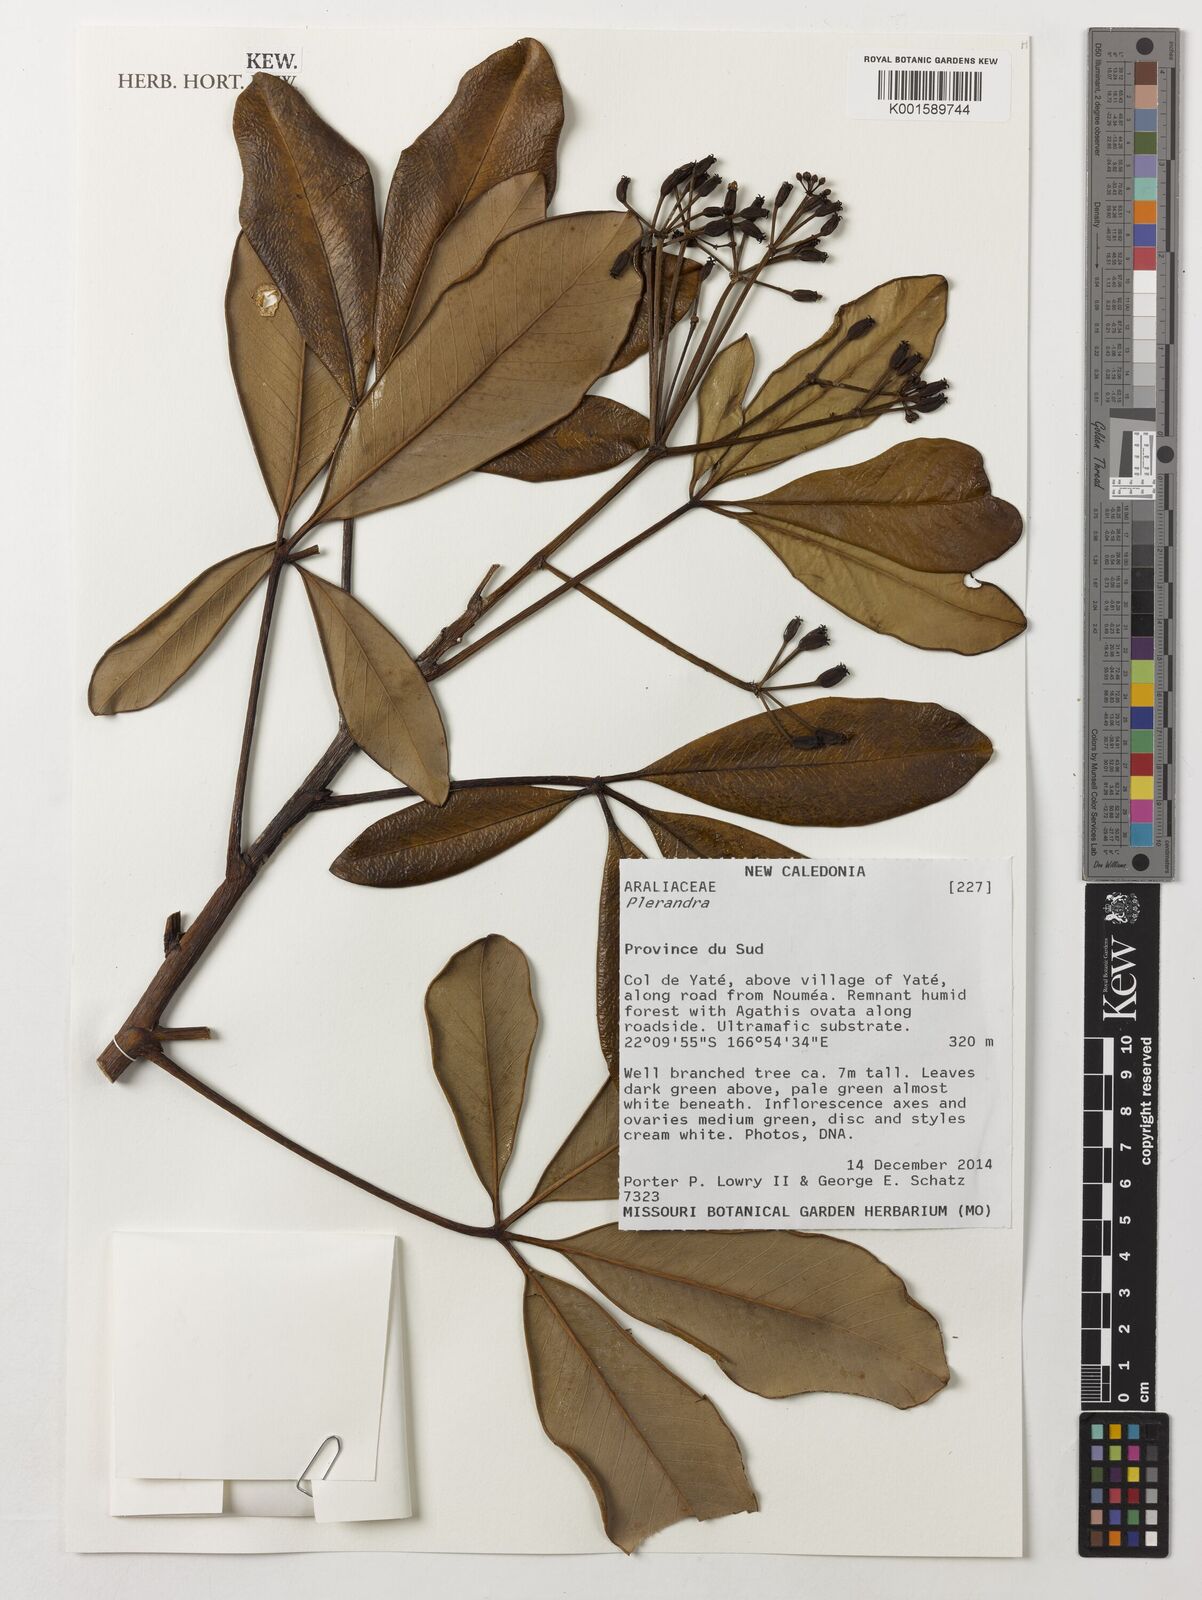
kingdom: Plantae
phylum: Tracheophyta
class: Magnoliopsida
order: Apiales
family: Araliaceae
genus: Plerandra
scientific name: Plerandra
